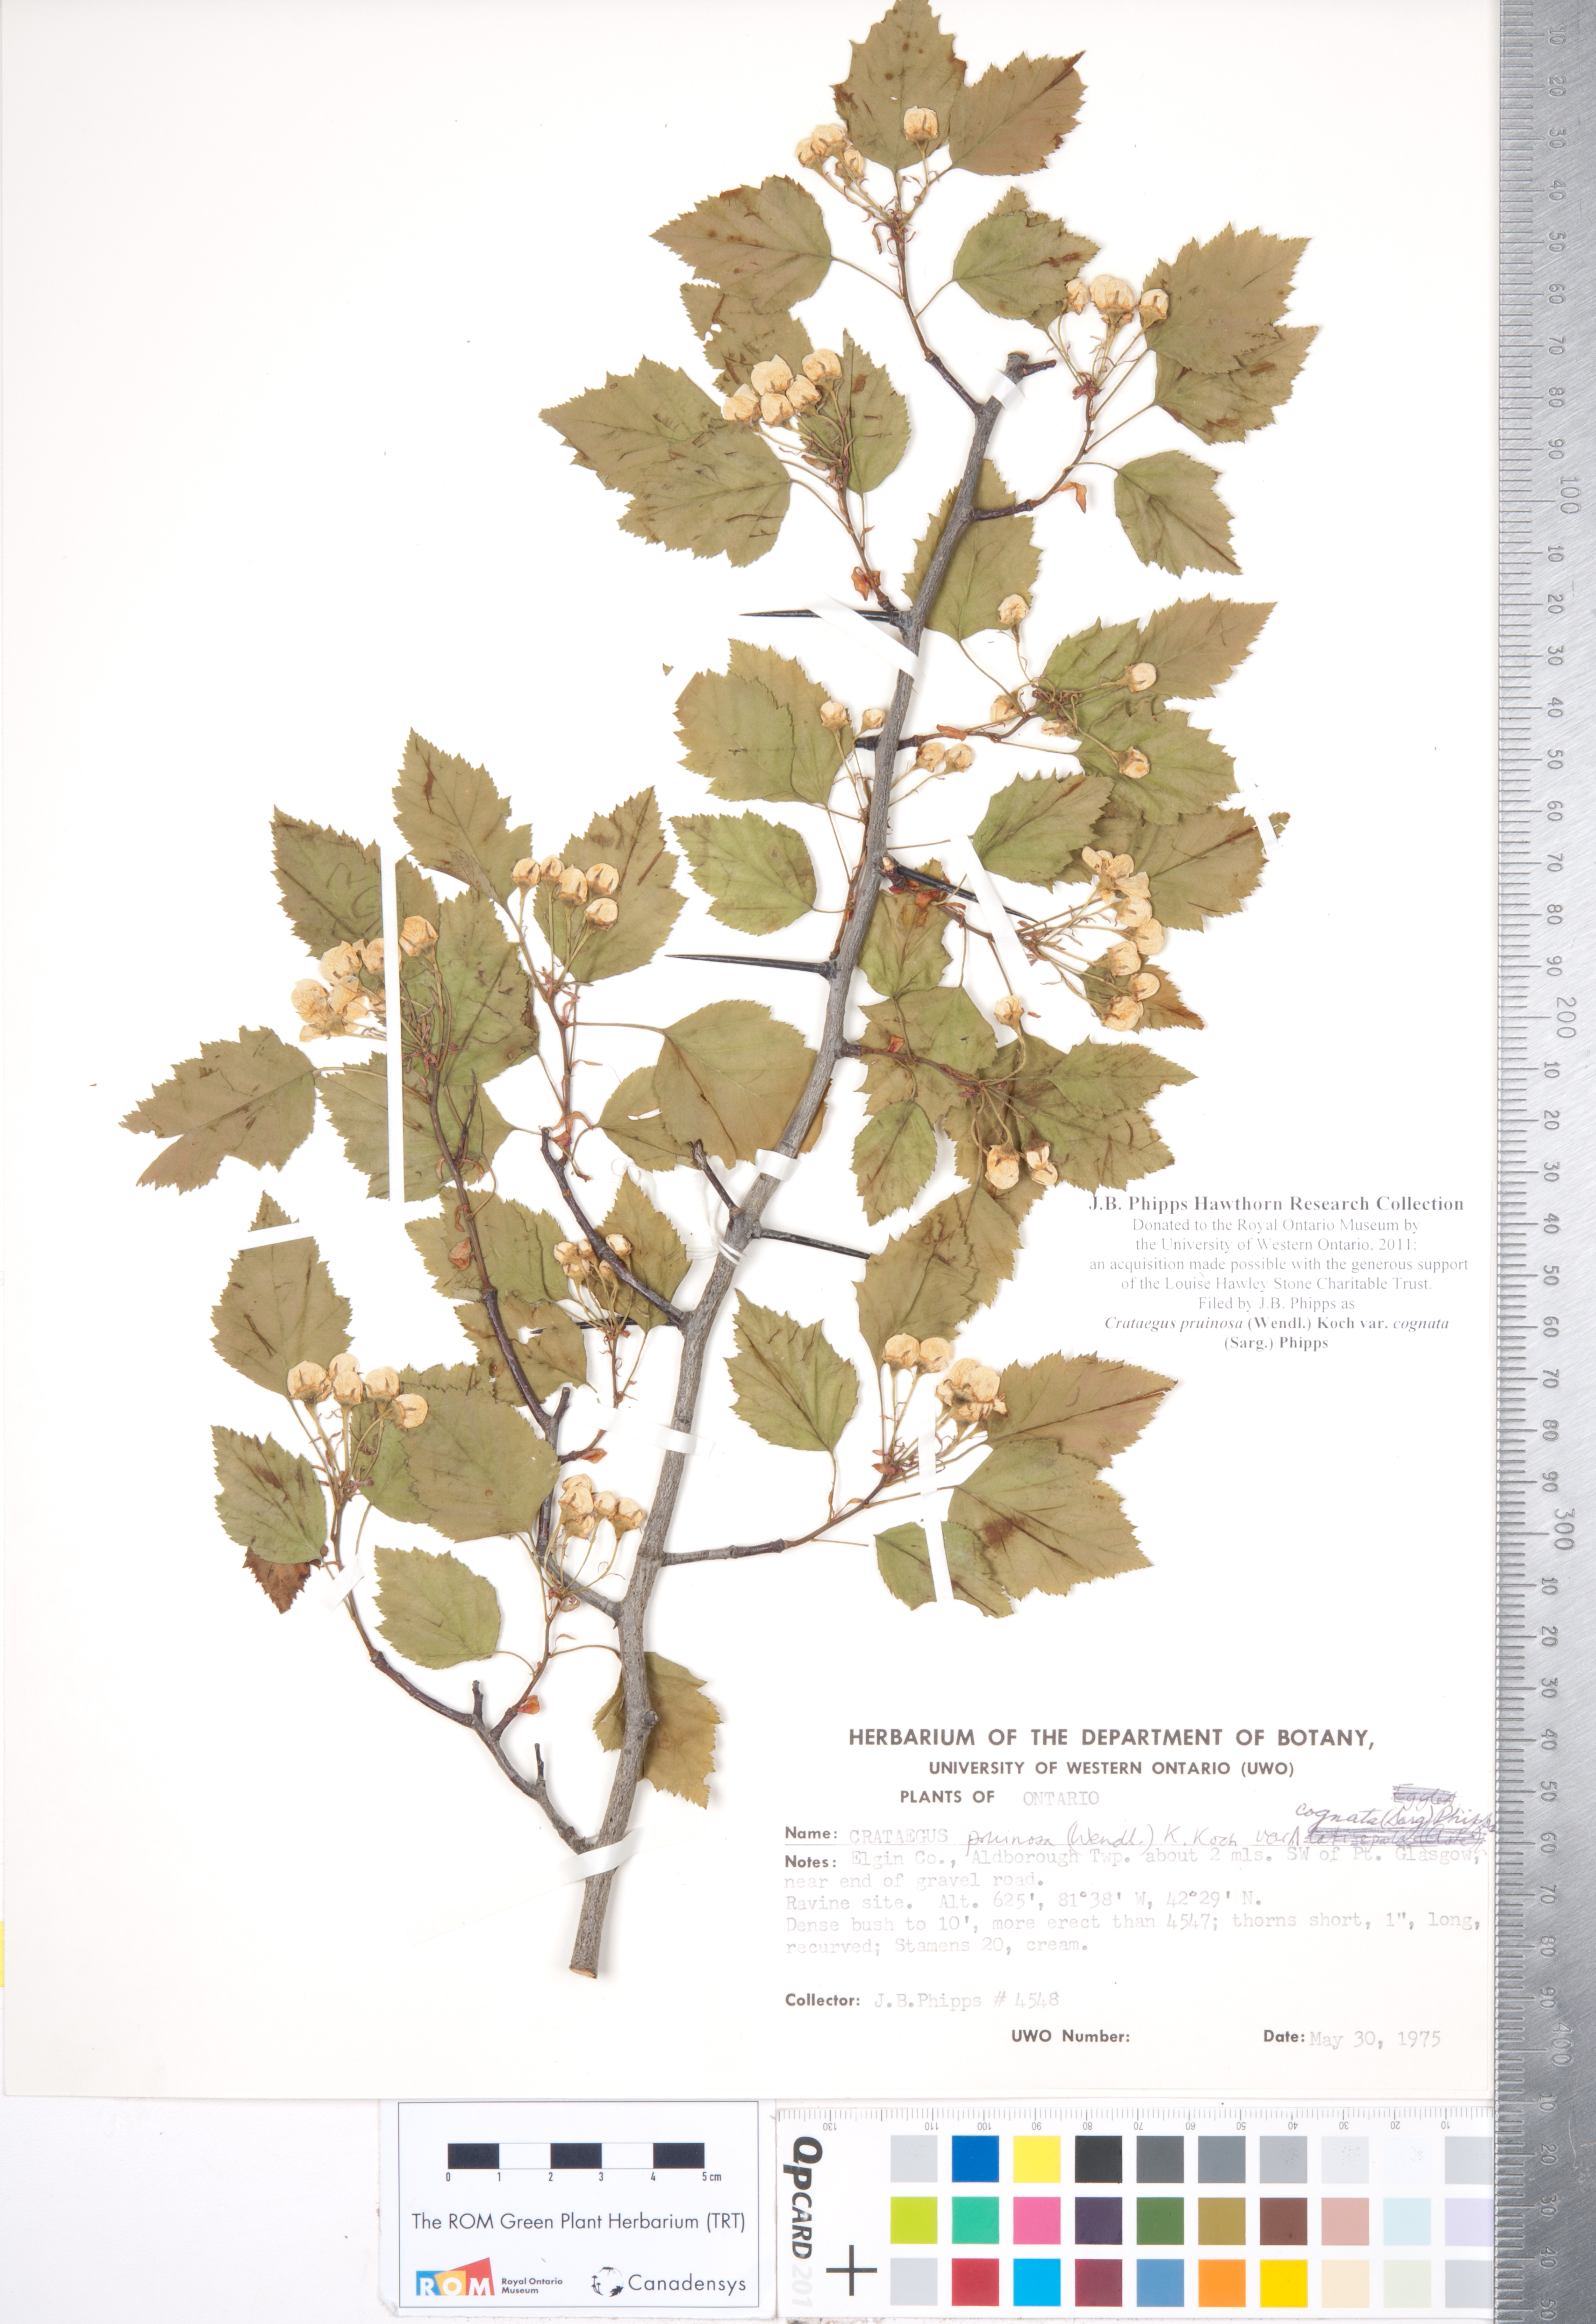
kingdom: Plantae
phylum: Tracheophyta
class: Magnoliopsida
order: Rosales
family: Rosaceae
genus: Crataegus
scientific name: Crataegus
